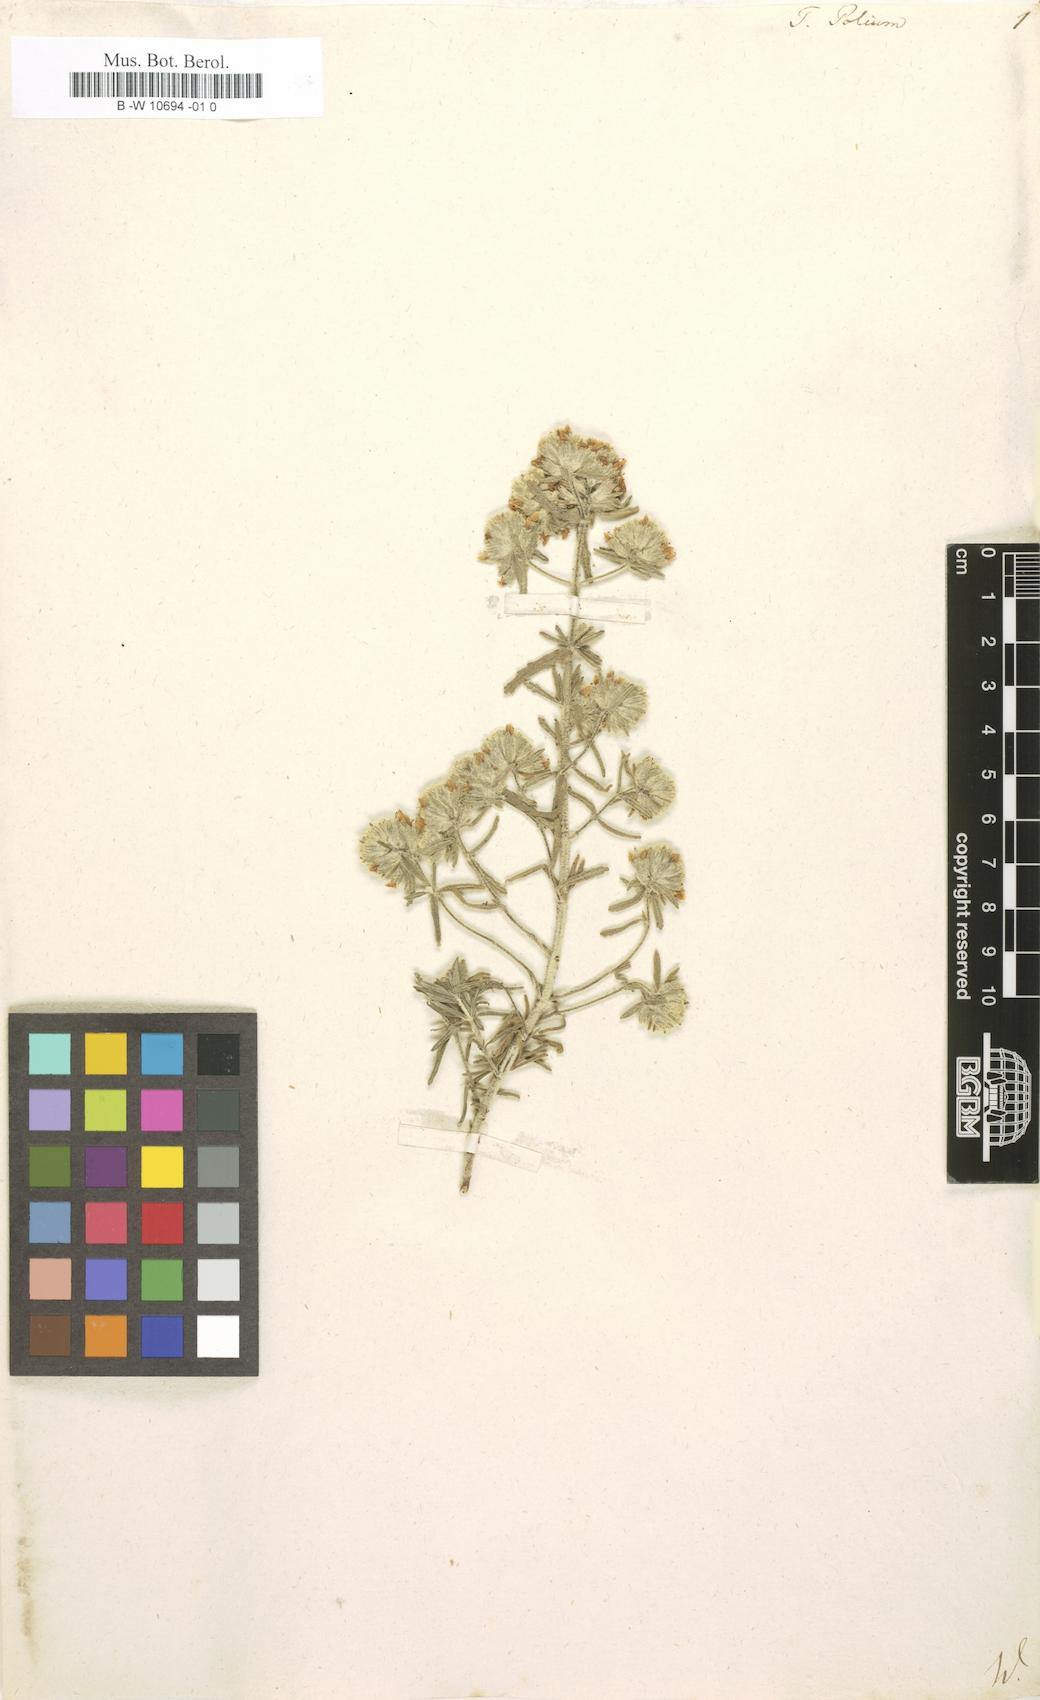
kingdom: Plantae
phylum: Tracheophyta
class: Magnoliopsida
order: Lamiales
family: Lamiaceae
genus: Teucrium
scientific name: Teucrium polium
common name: Poley
